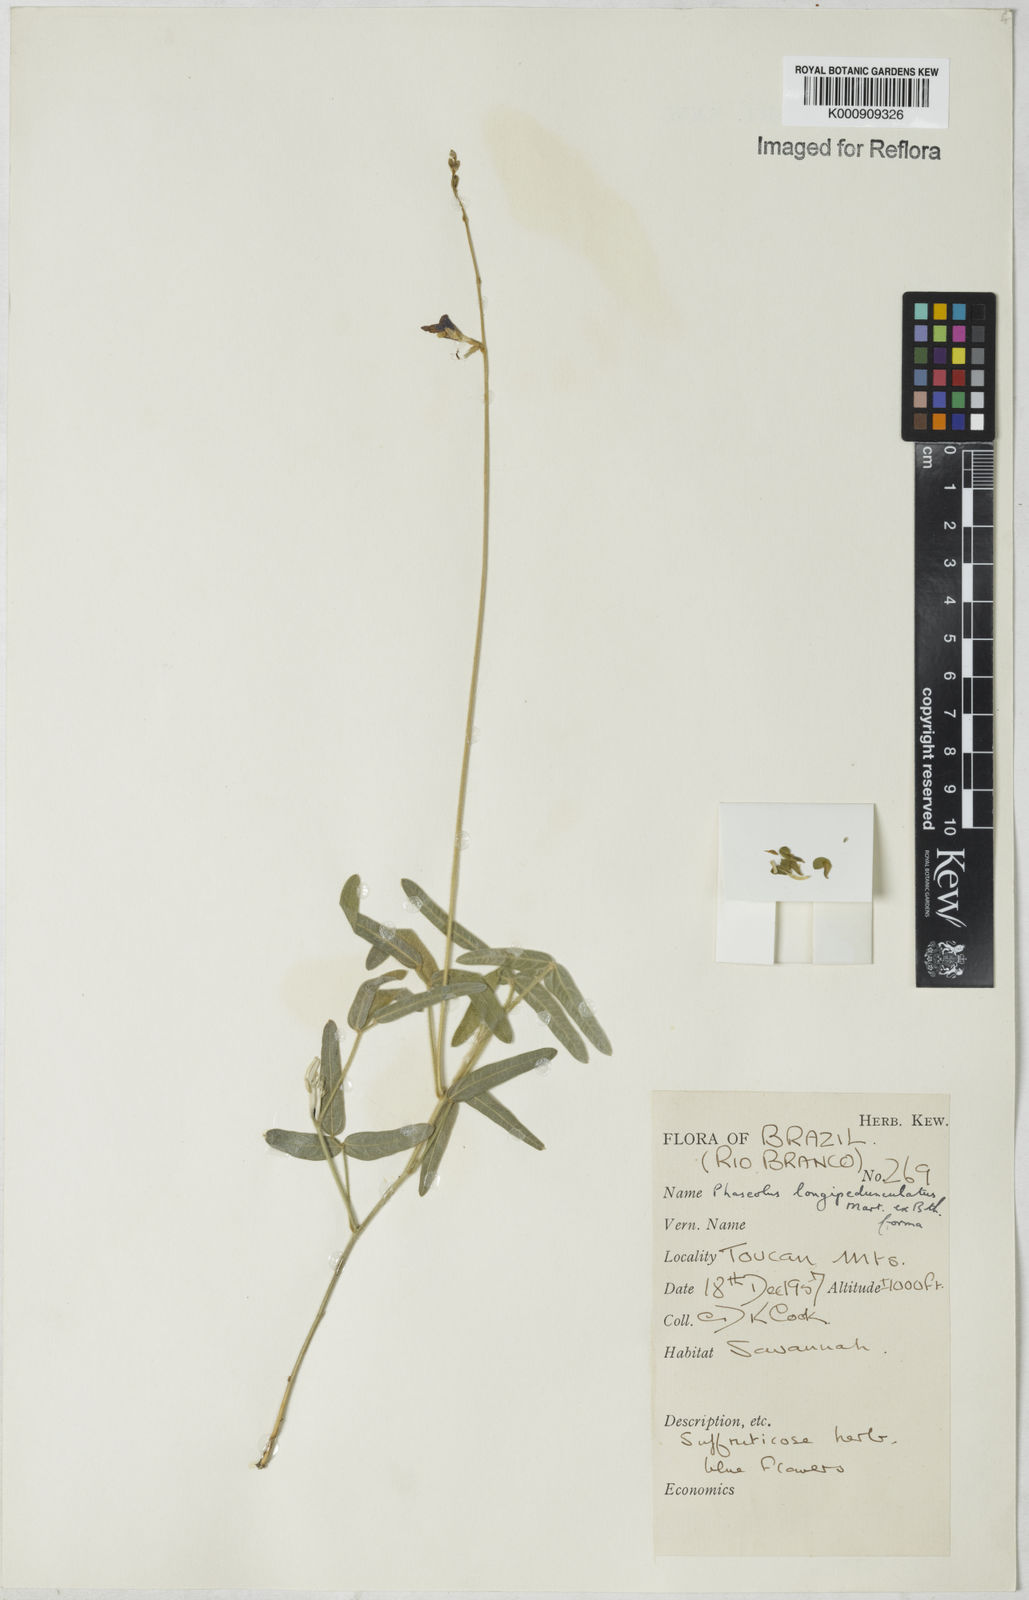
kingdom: Plantae
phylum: Tracheophyta
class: Magnoliopsida
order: Fabales
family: Fabaceae
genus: Macroptilium
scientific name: Macroptilium gracile
